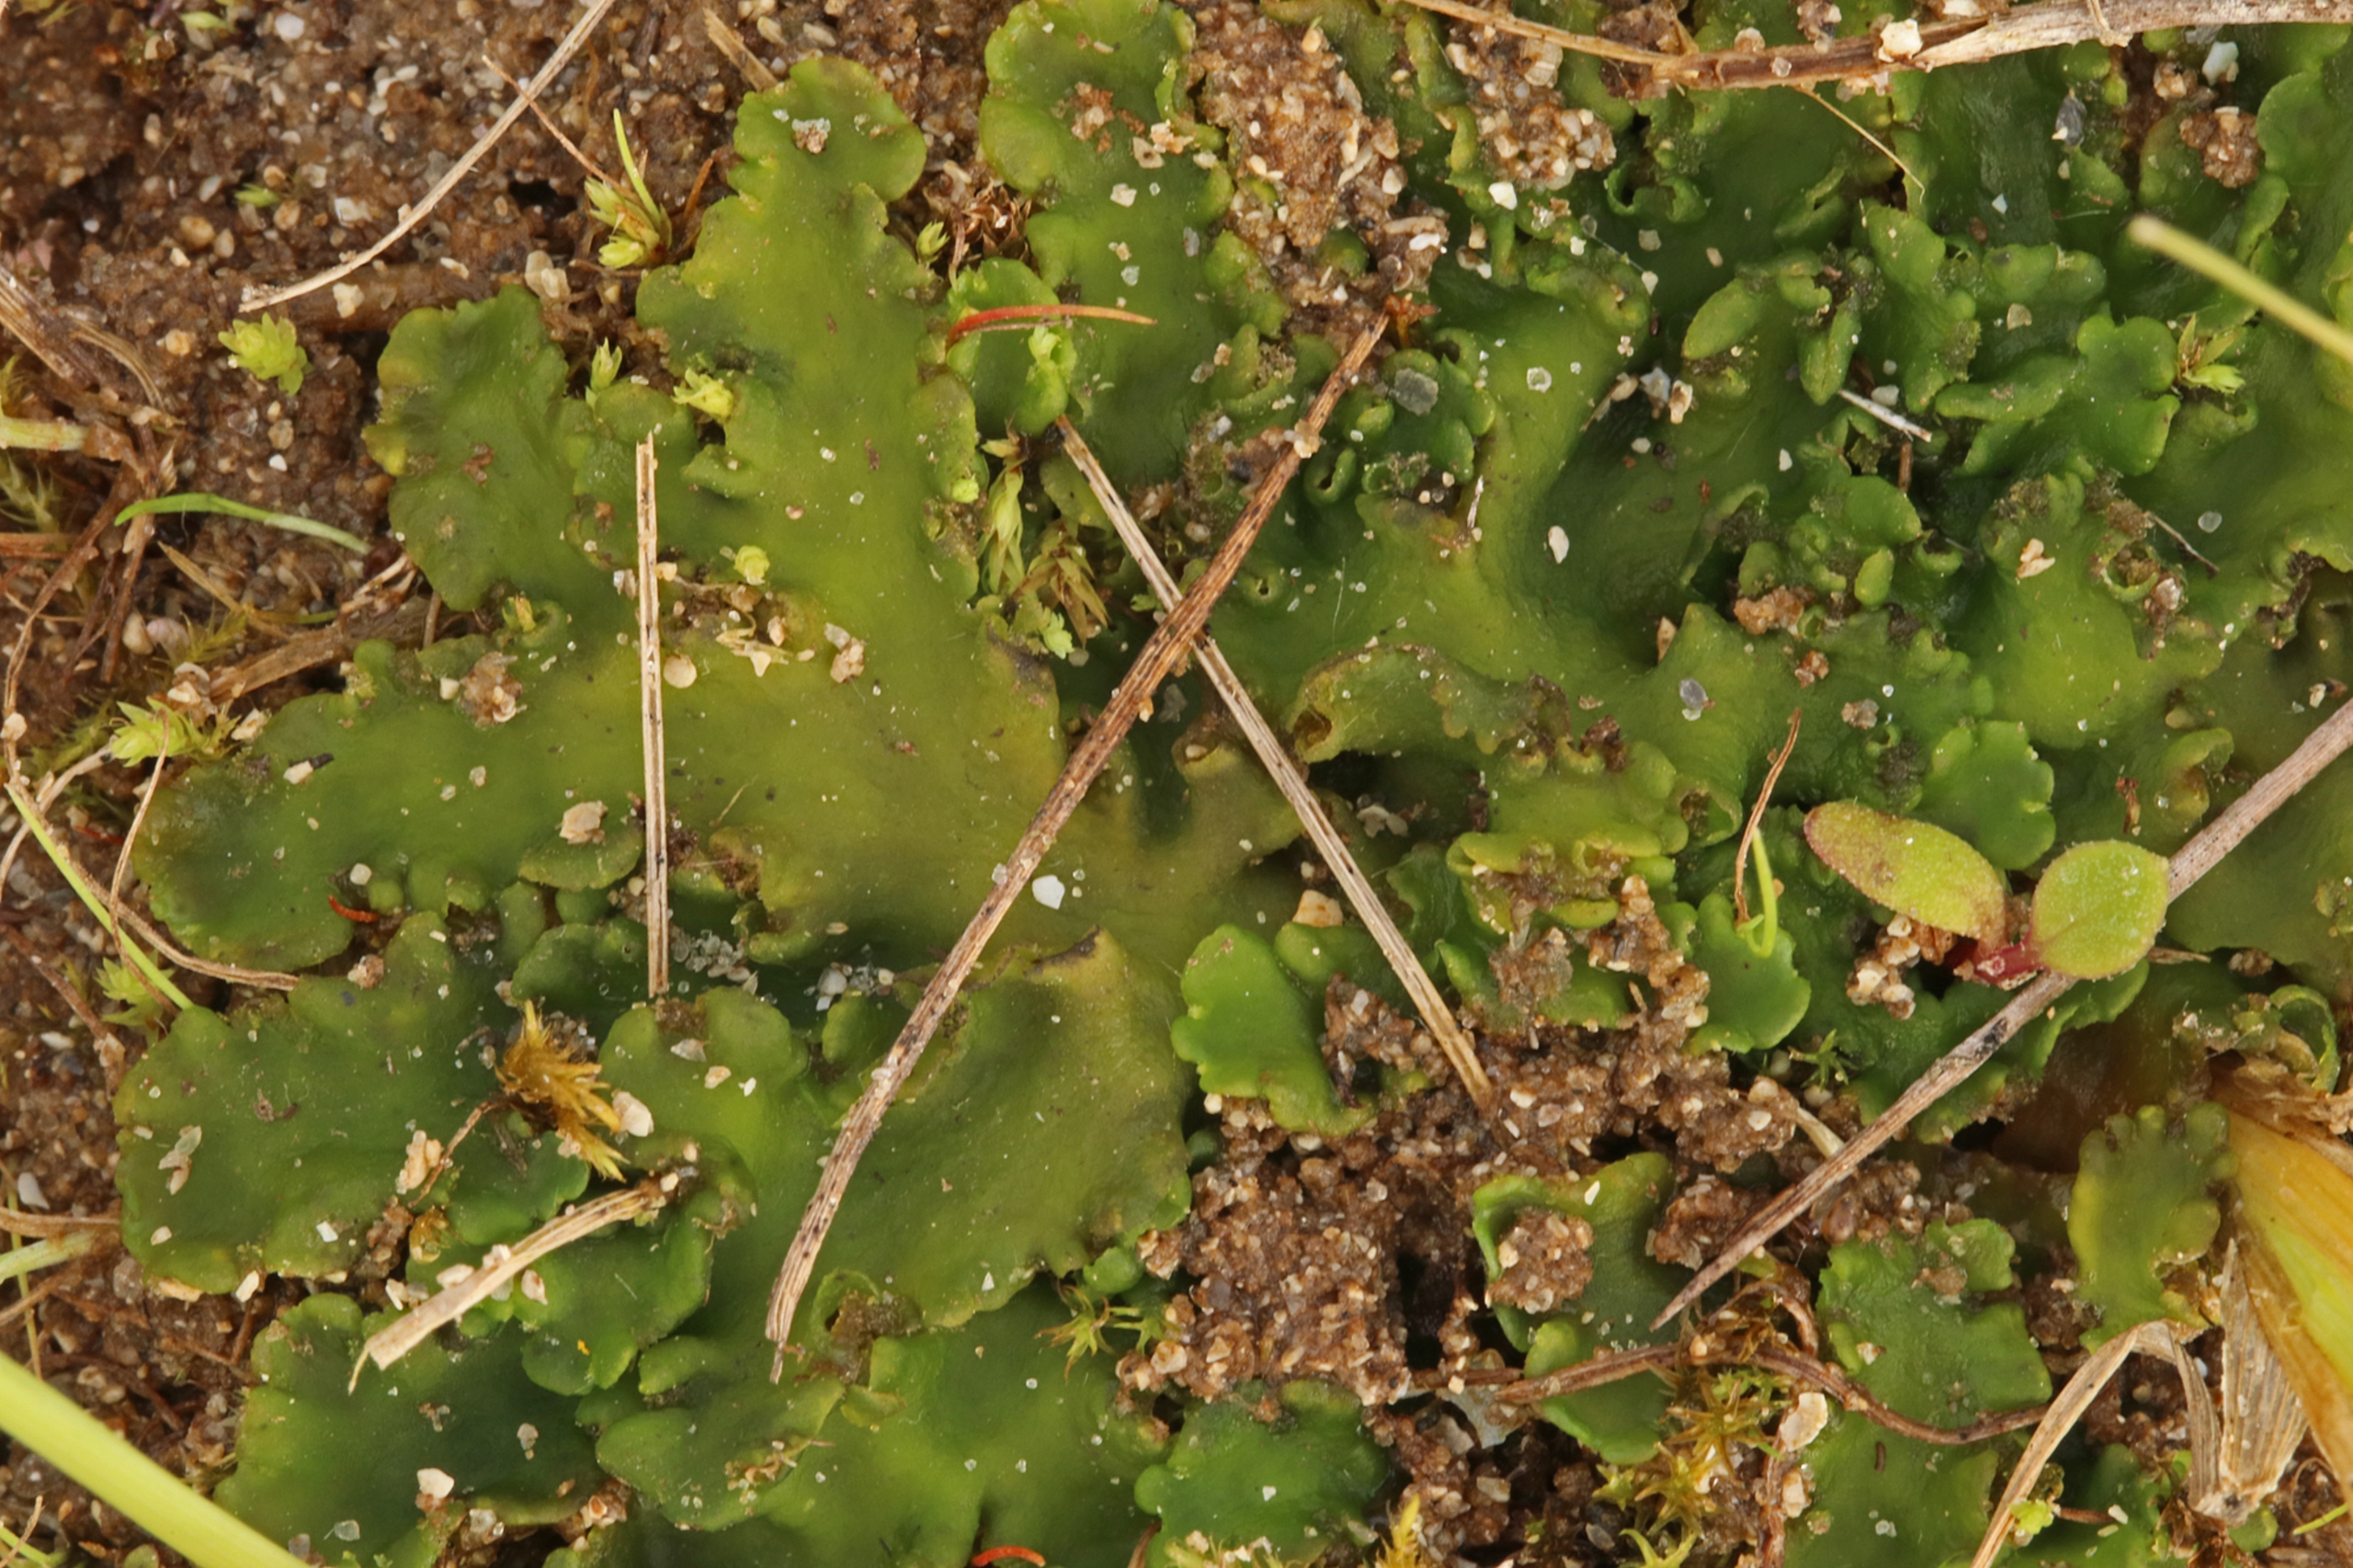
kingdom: Plantae
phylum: Marchantiophyta
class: Jungermanniopsida
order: Metzgeriales
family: Aneuraceae
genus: Aneura
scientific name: Aneura pinguis
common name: Tyk nerveløs
